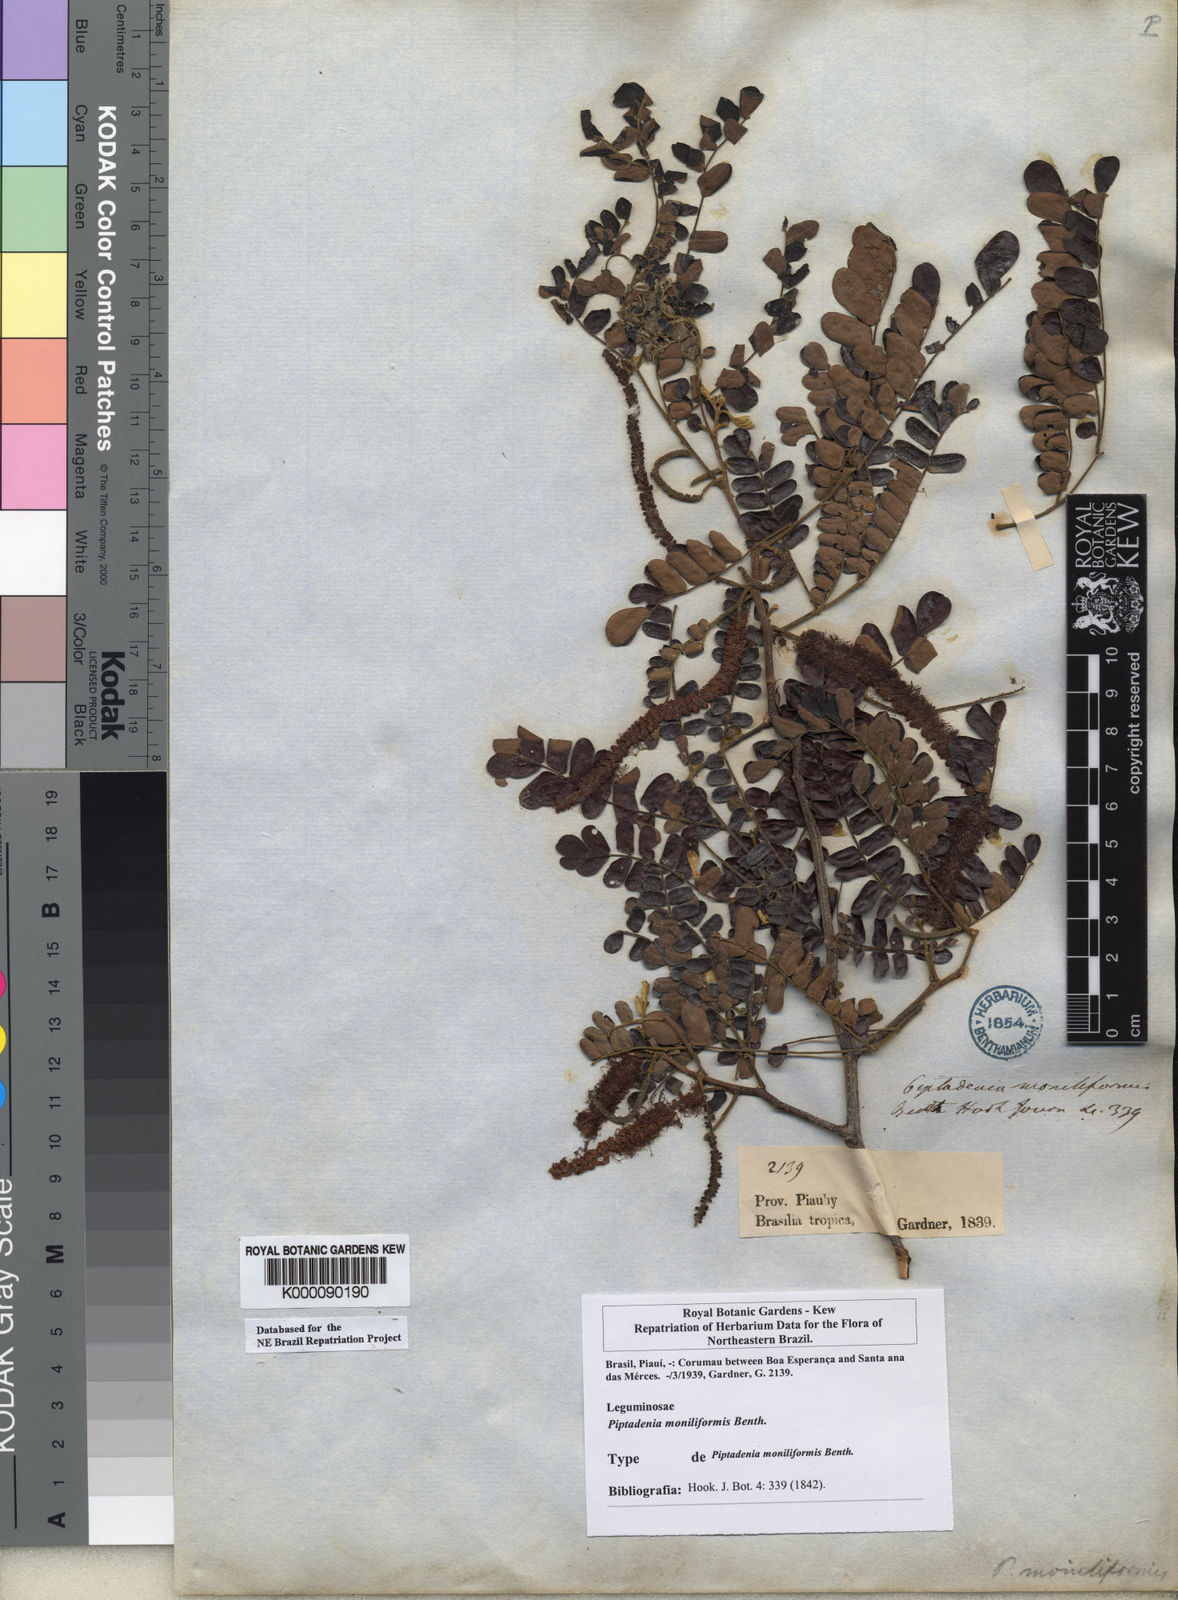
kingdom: Plantae
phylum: Tracheophyta
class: Magnoliopsida
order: Fabales
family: Fabaceae
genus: Pityrocarpa
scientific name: Pityrocarpa moniliformis
